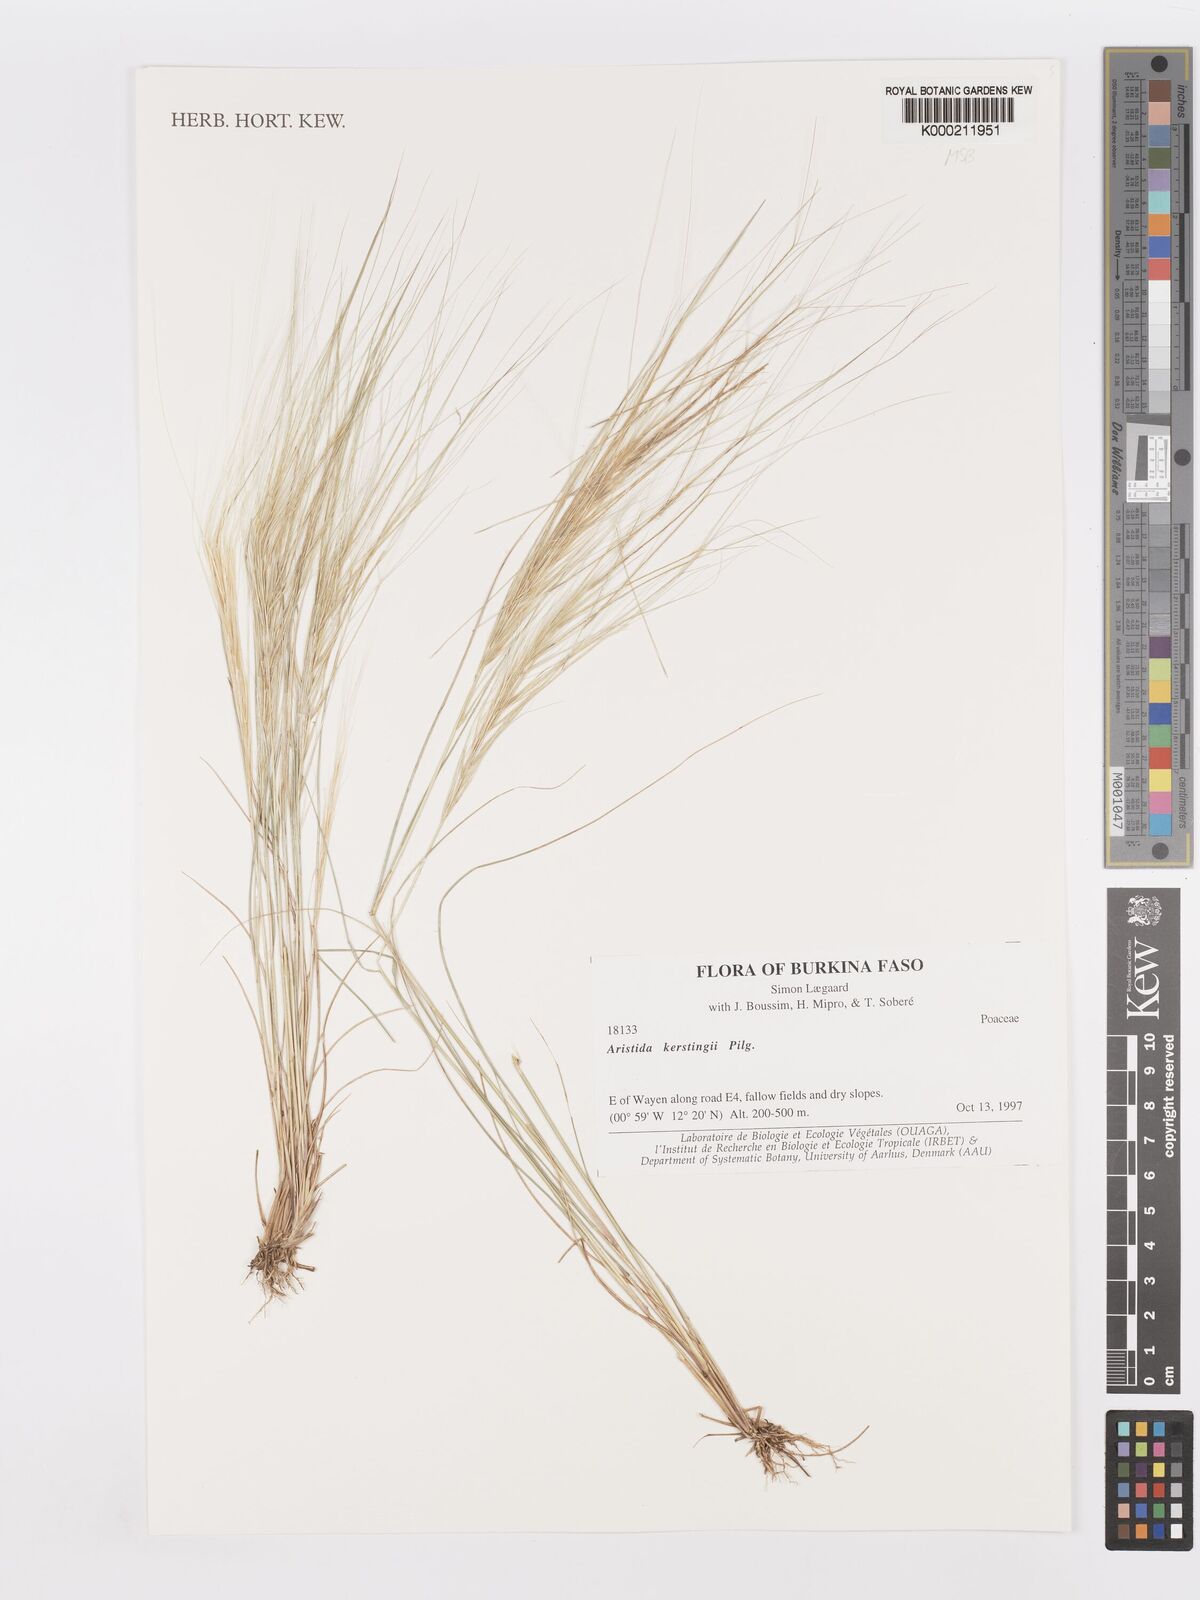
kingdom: Plantae
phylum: Tracheophyta
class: Liliopsida
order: Poales
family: Poaceae
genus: Aristida
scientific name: Aristida kerstingii
